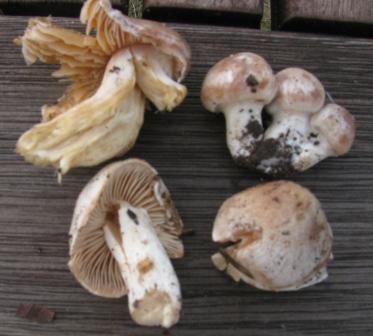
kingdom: Fungi
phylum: Basidiomycota
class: Agaricomycetes
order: Agaricales
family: Cortinariaceae
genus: Thaxterogaster
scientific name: Thaxterogaster leucoluteolus
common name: isabella slørhat
